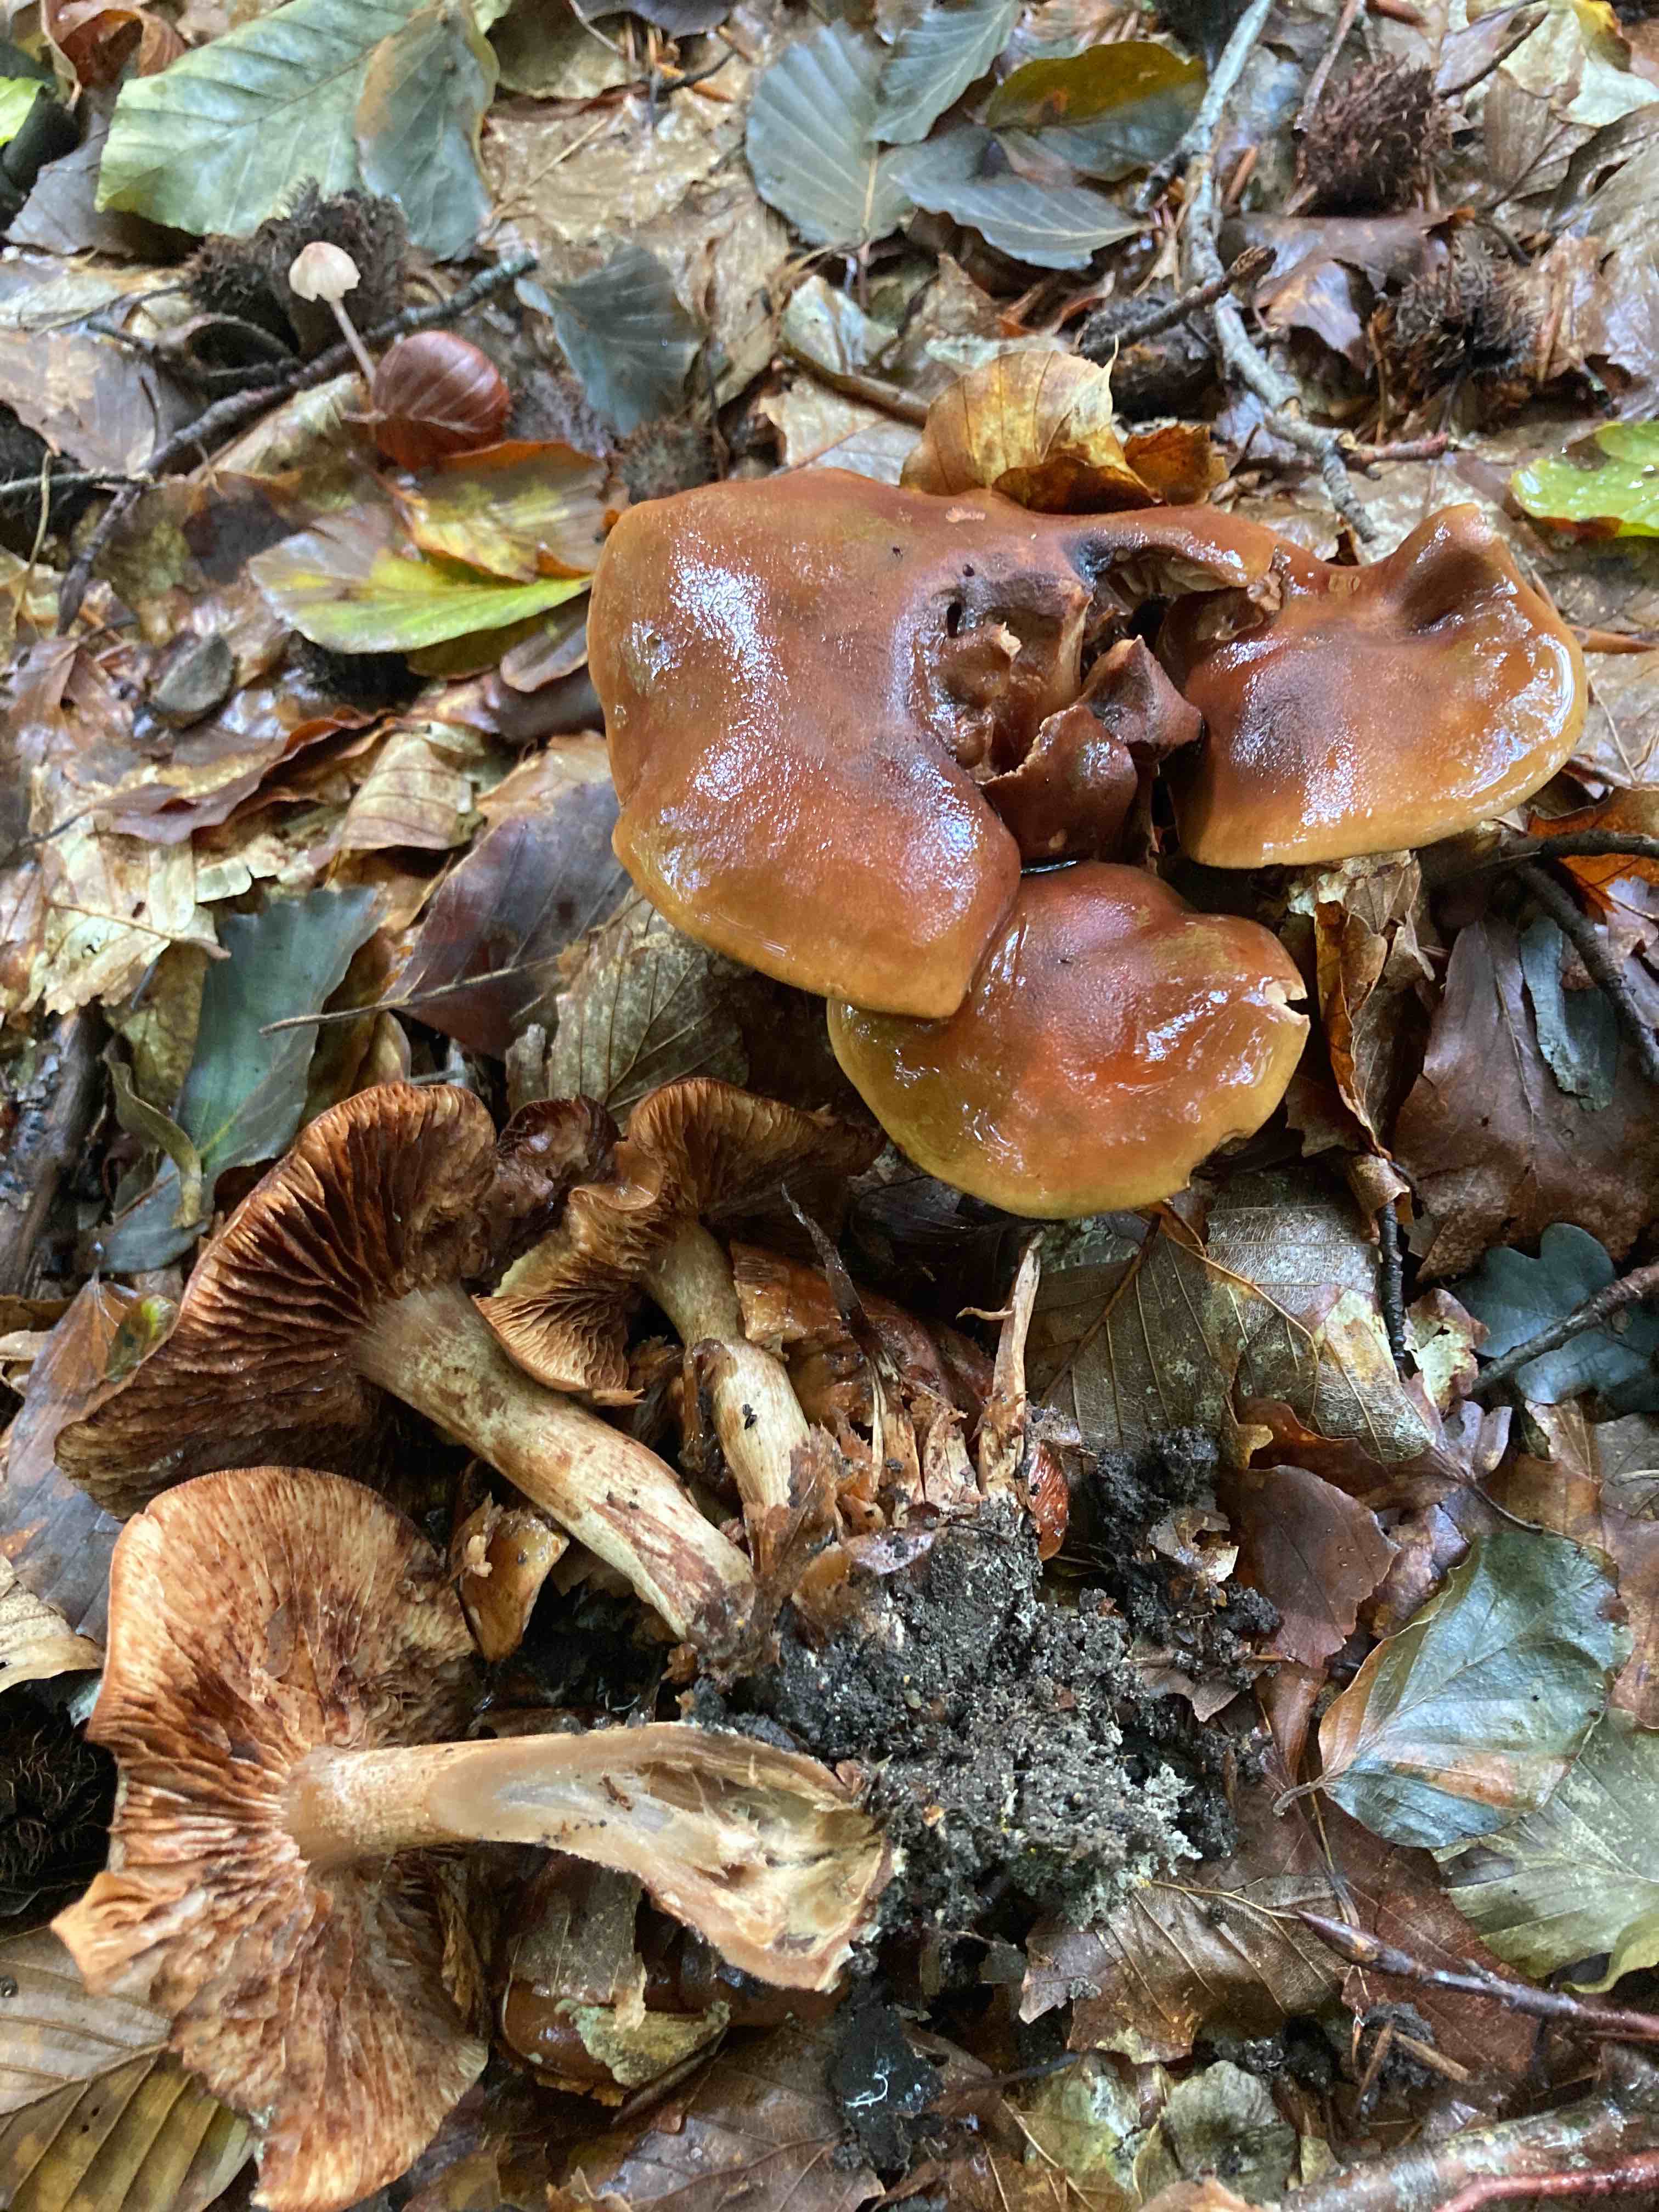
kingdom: Fungi
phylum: Basidiomycota
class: Agaricomycetes
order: Agaricales
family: Tricholomataceae
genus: Tricholoma
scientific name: Tricholoma ustale
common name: sveden ridderhat
